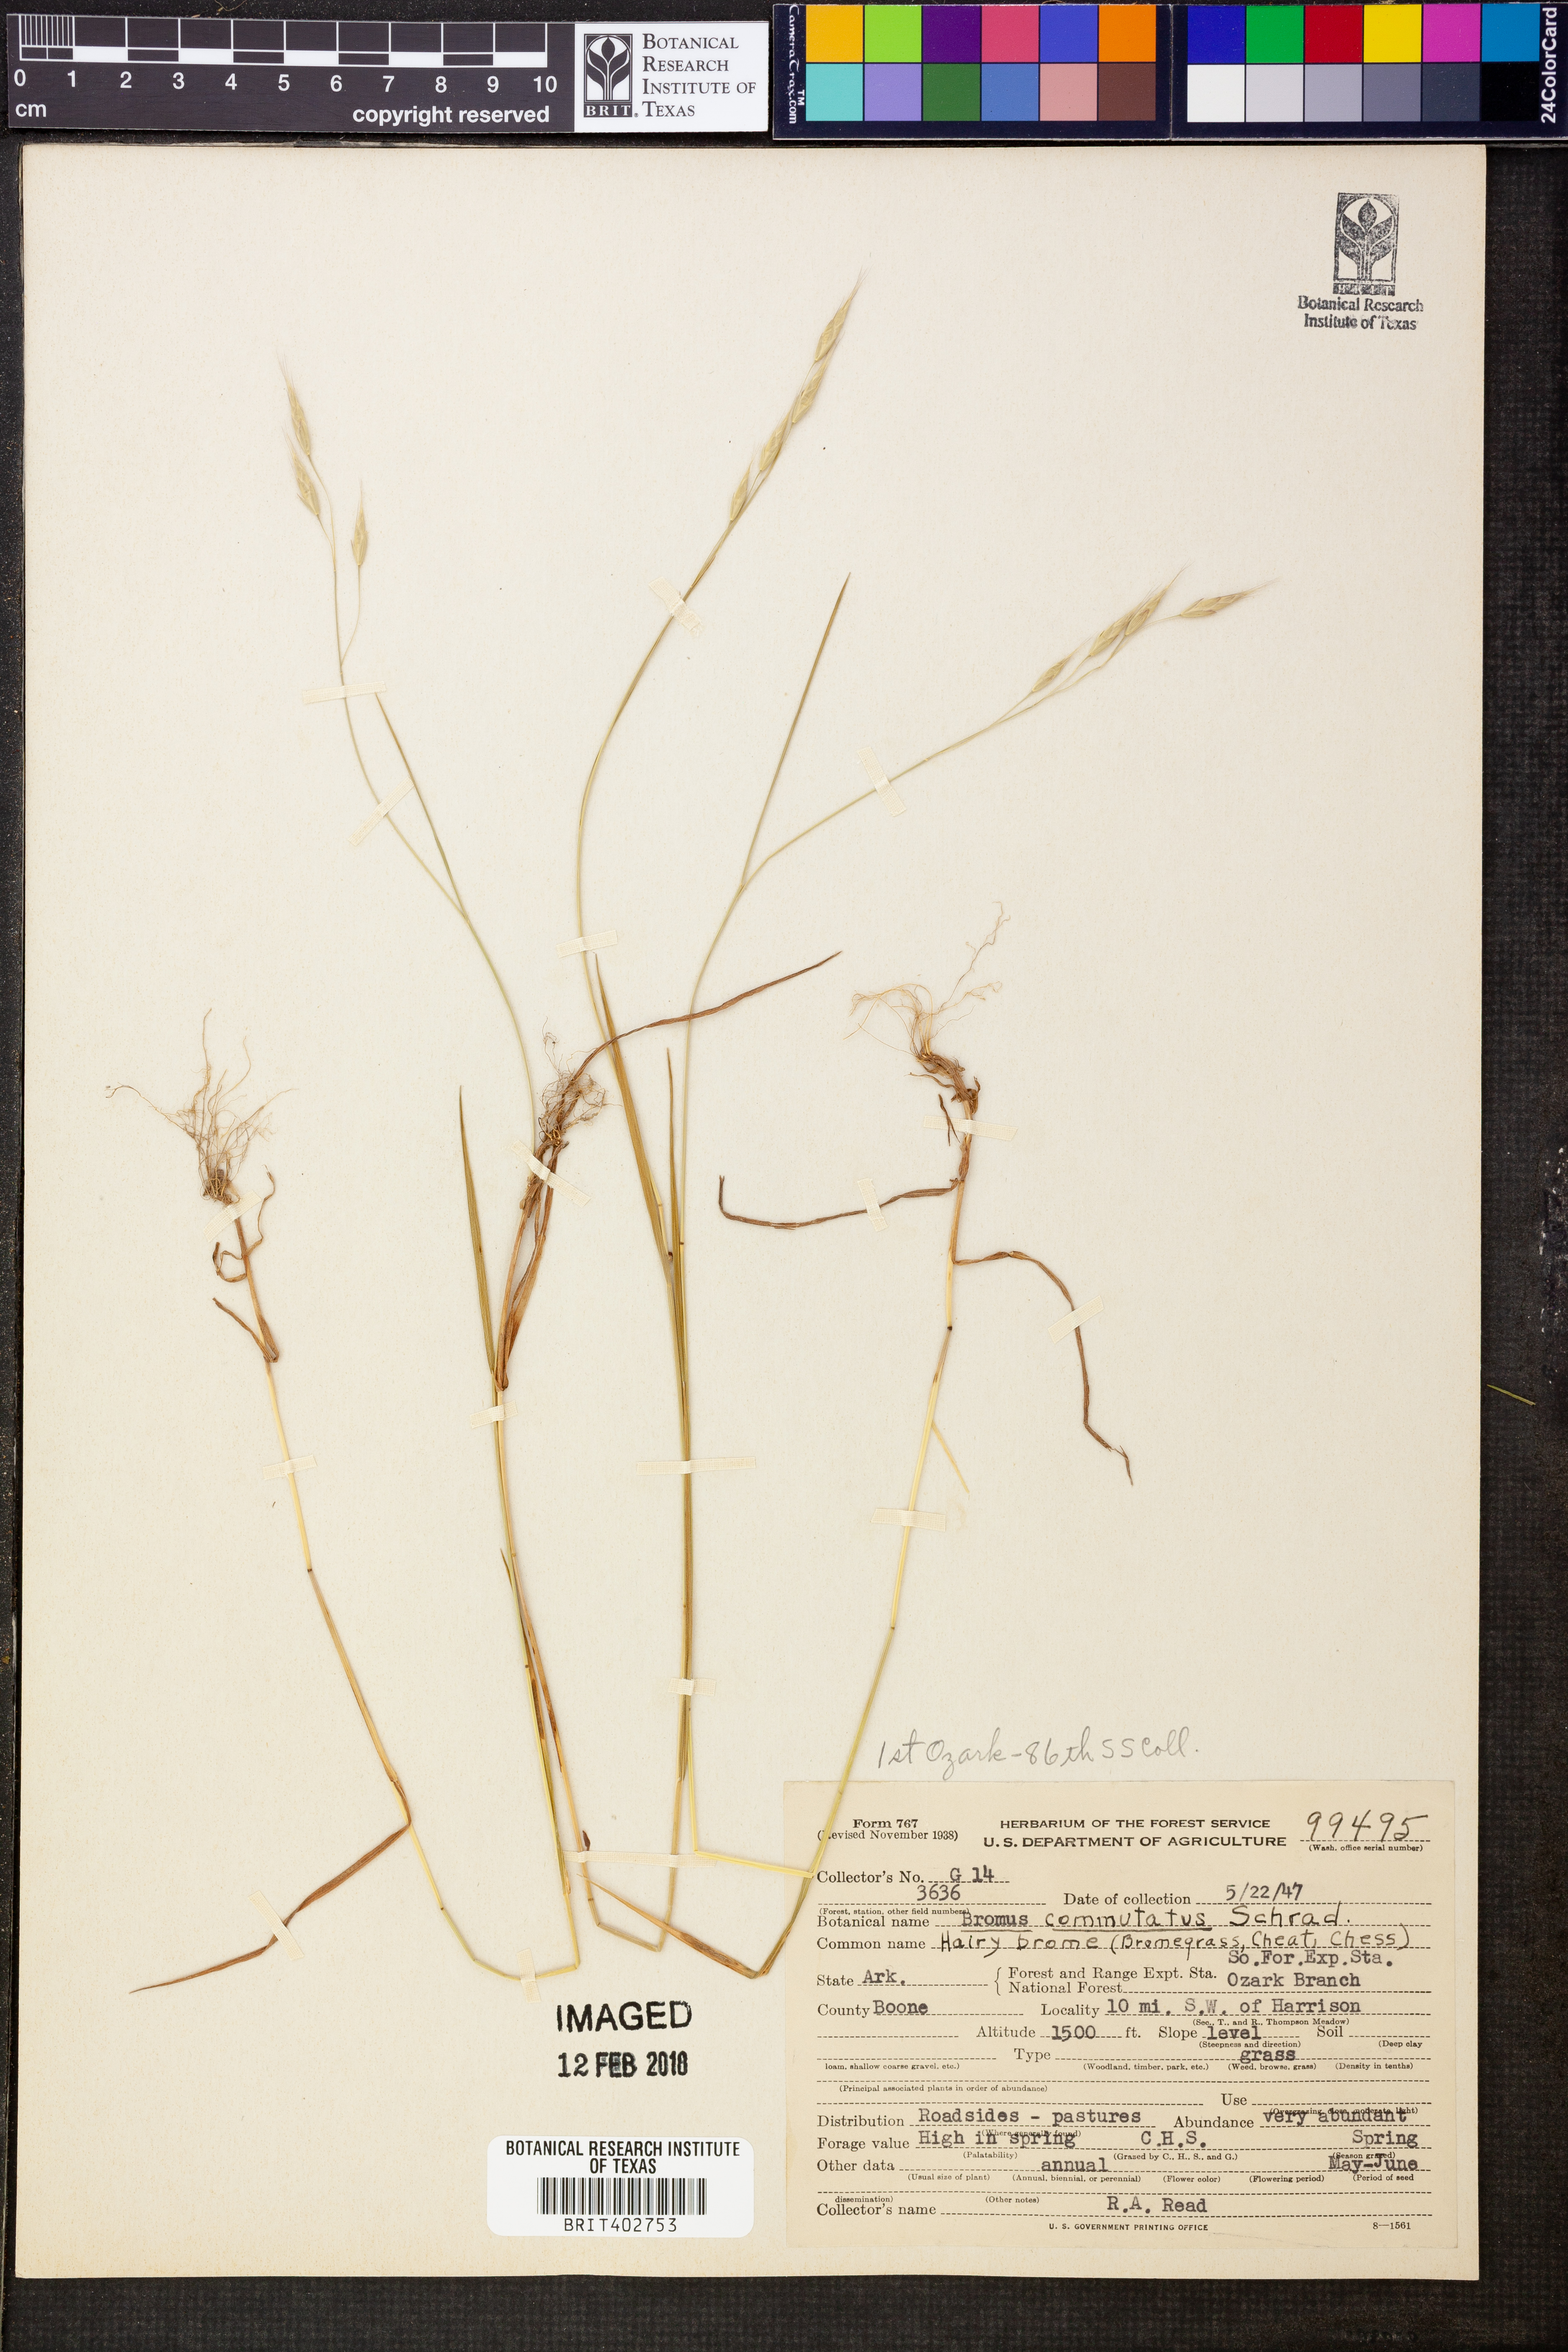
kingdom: Plantae
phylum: Tracheophyta
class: Liliopsida
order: Poales
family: Poaceae
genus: Bromus
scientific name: Bromus commutatus
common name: Meadow brome
